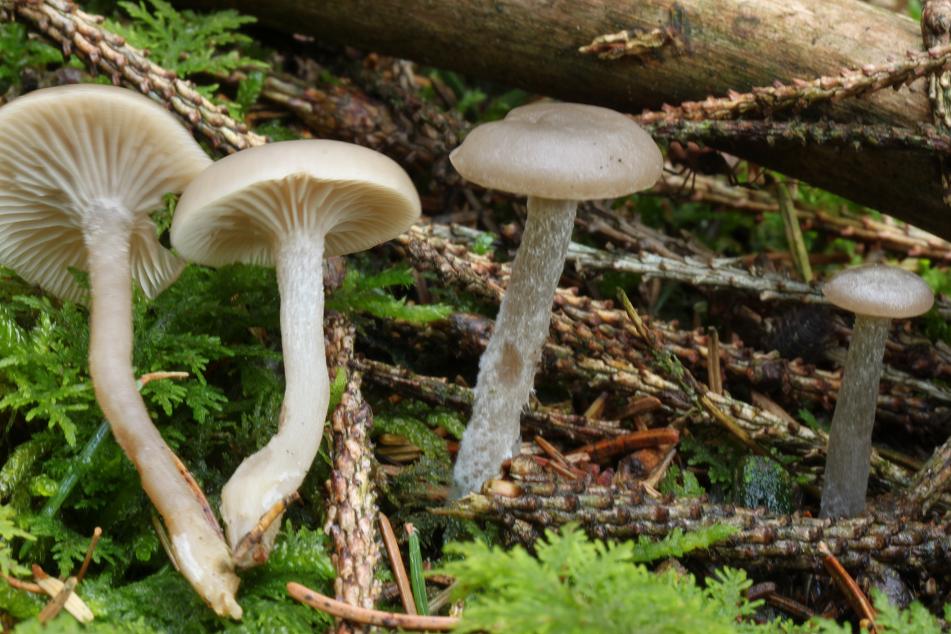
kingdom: Fungi
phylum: Basidiomycota
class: Agaricomycetes
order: Agaricales
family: Tricholomataceae
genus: Clitocybe
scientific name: Clitocybe
